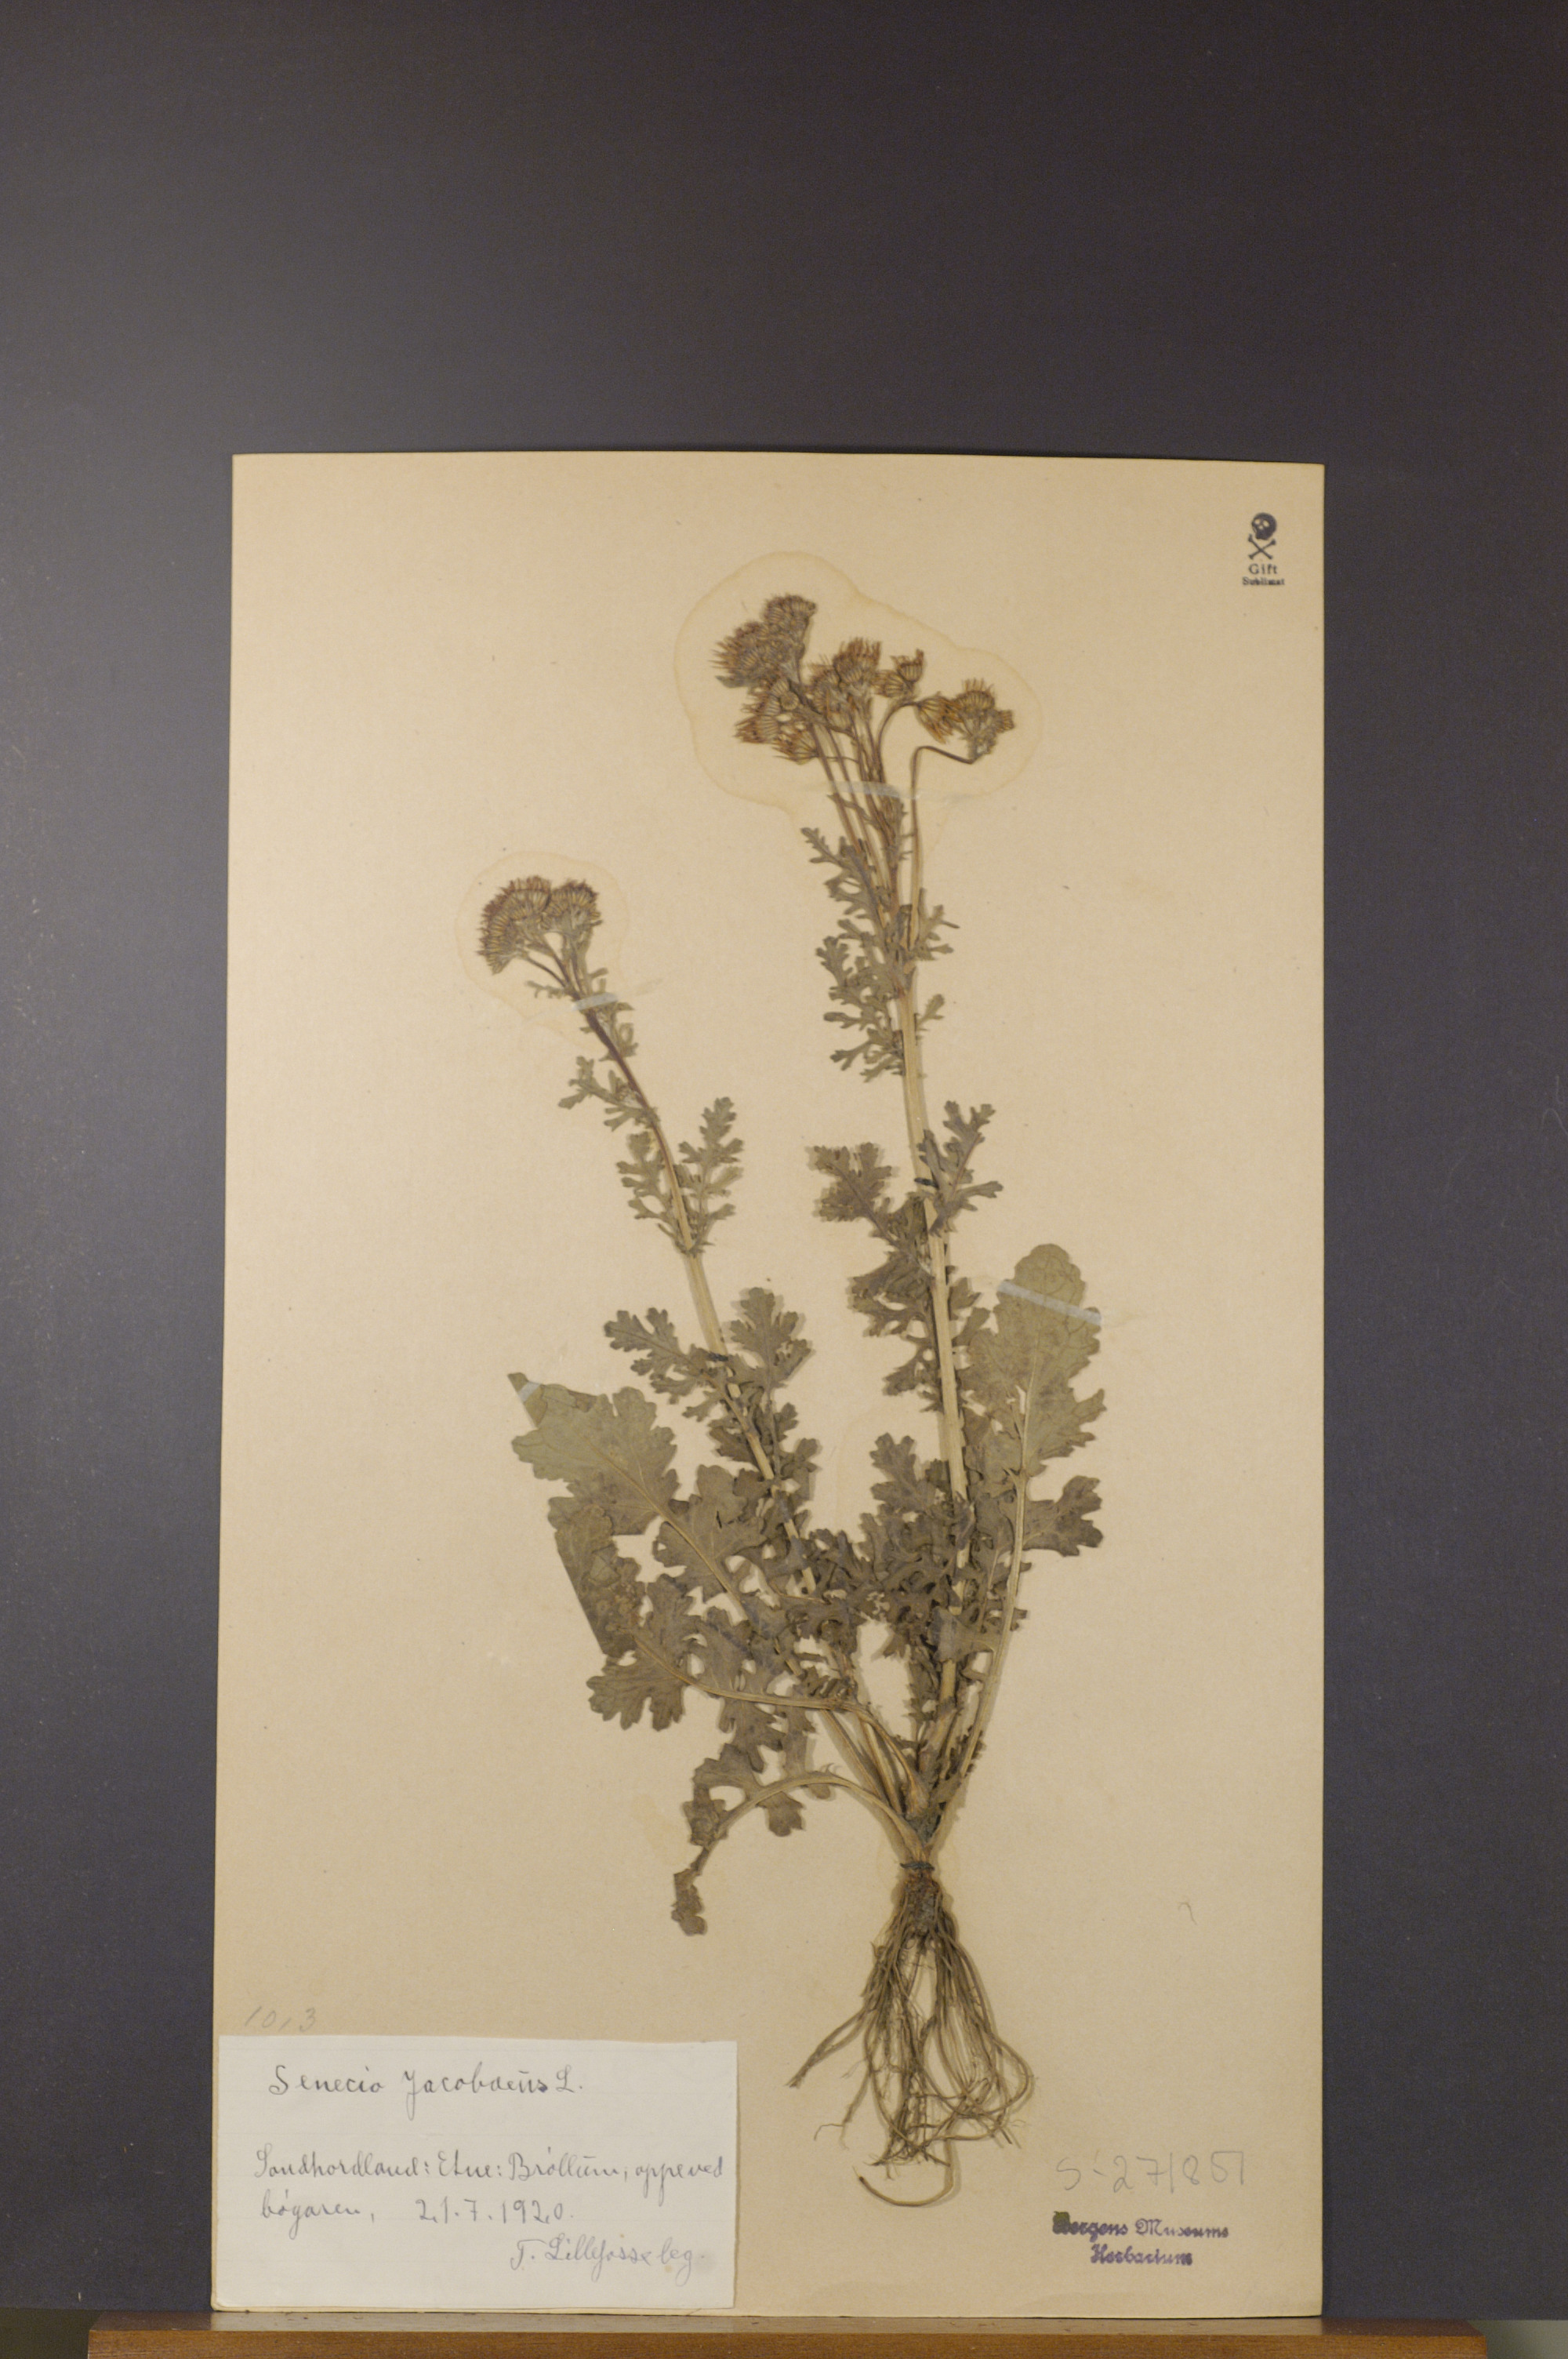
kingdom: Plantae
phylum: Tracheophyta
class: Magnoliopsida
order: Asterales
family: Asteraceae
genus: Jacobaea
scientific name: Jacobaea vulgaris
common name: Stinking willie
